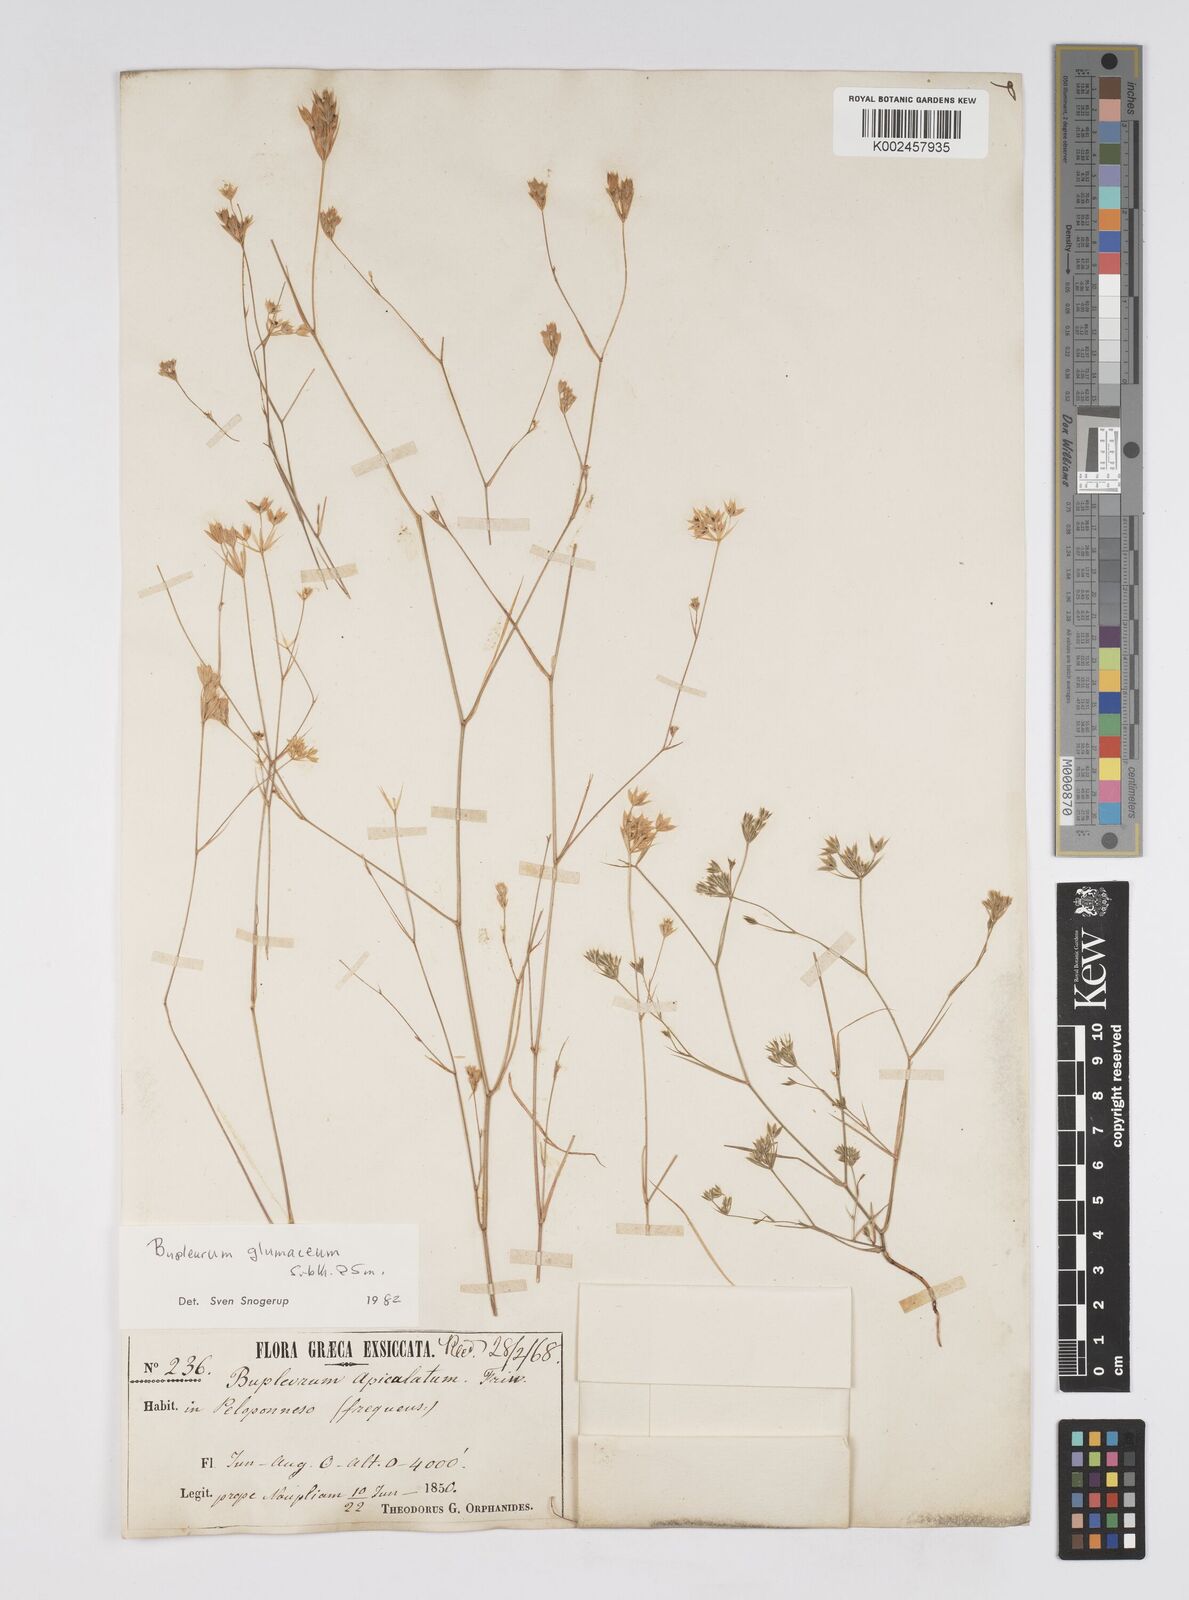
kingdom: Plantae
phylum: Tracheophyta
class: Magnoliopsida
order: Apiales
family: Apiaceae
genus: Bupleurum
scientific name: Bupleurum glumaceum
